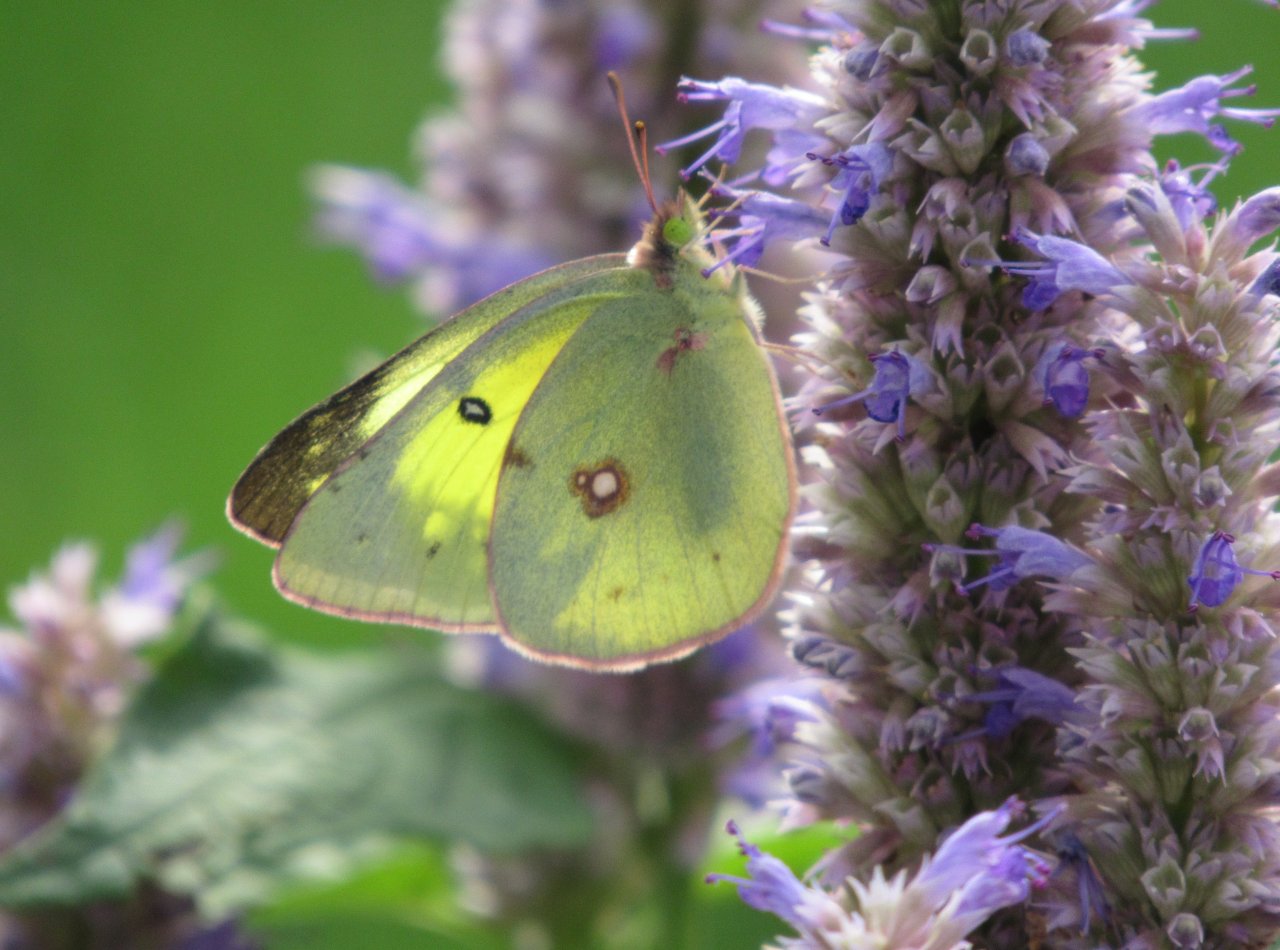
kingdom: Animalia
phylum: Arthropoda
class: Insecta
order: Lepidoptera
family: Pieridae
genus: Colias
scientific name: Colias philodice
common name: Clouded Sulphur
